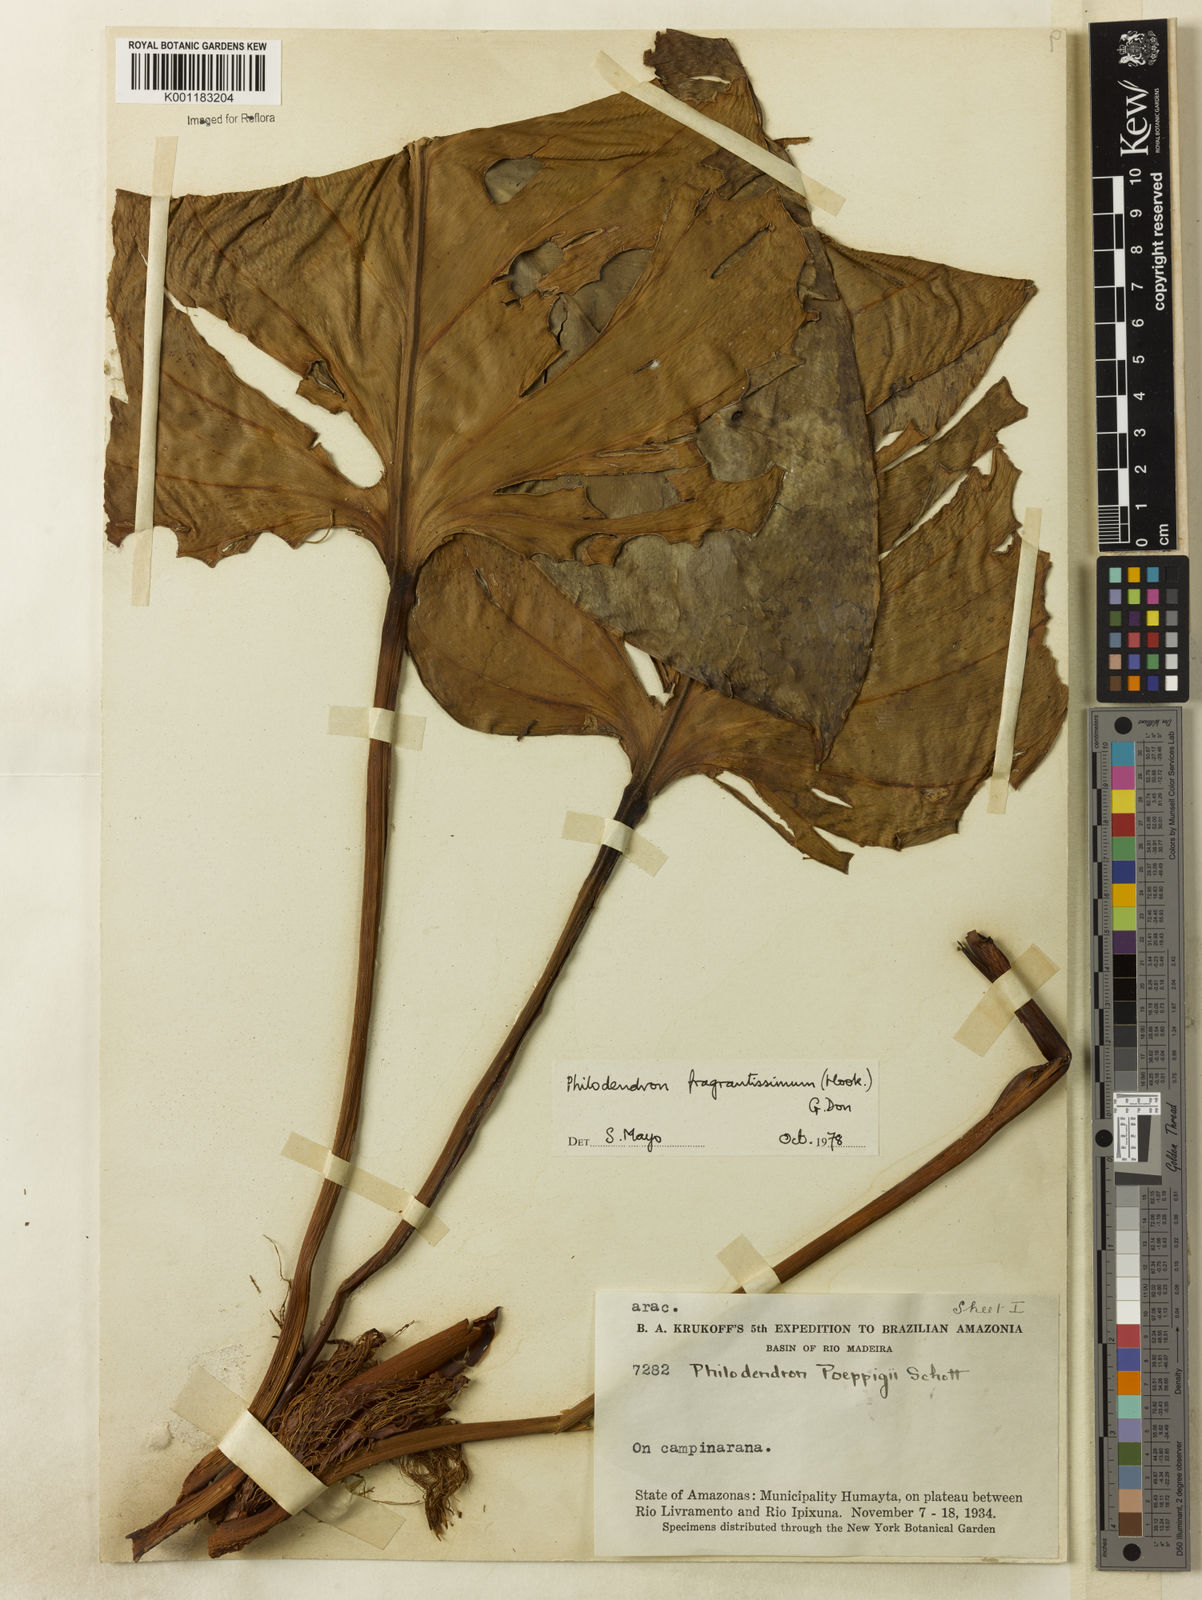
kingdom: Plantae
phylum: Tracheophyta
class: Liliopsida
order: Alismatales
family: Araceae
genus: Philodendron
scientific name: Philodendron
